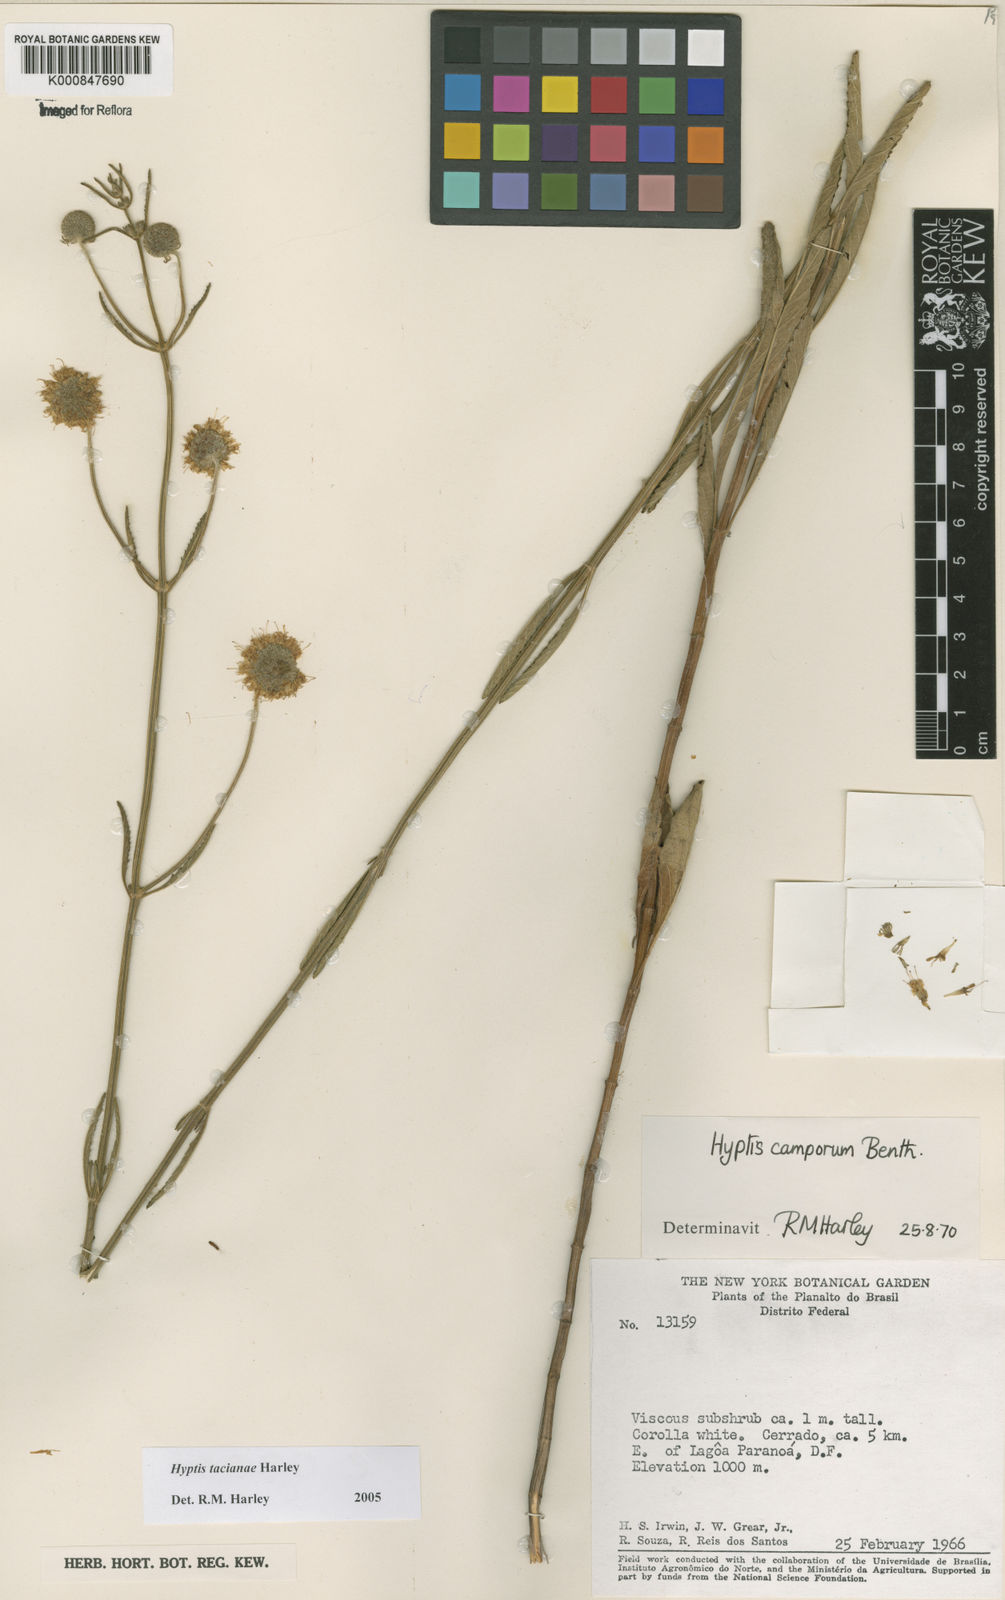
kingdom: Plantae
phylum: Tracheophyta
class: Magnoliopsida
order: Lamiales
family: Lamiaceae
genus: Cyanocephalus
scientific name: Cyanocephalus tacianae
